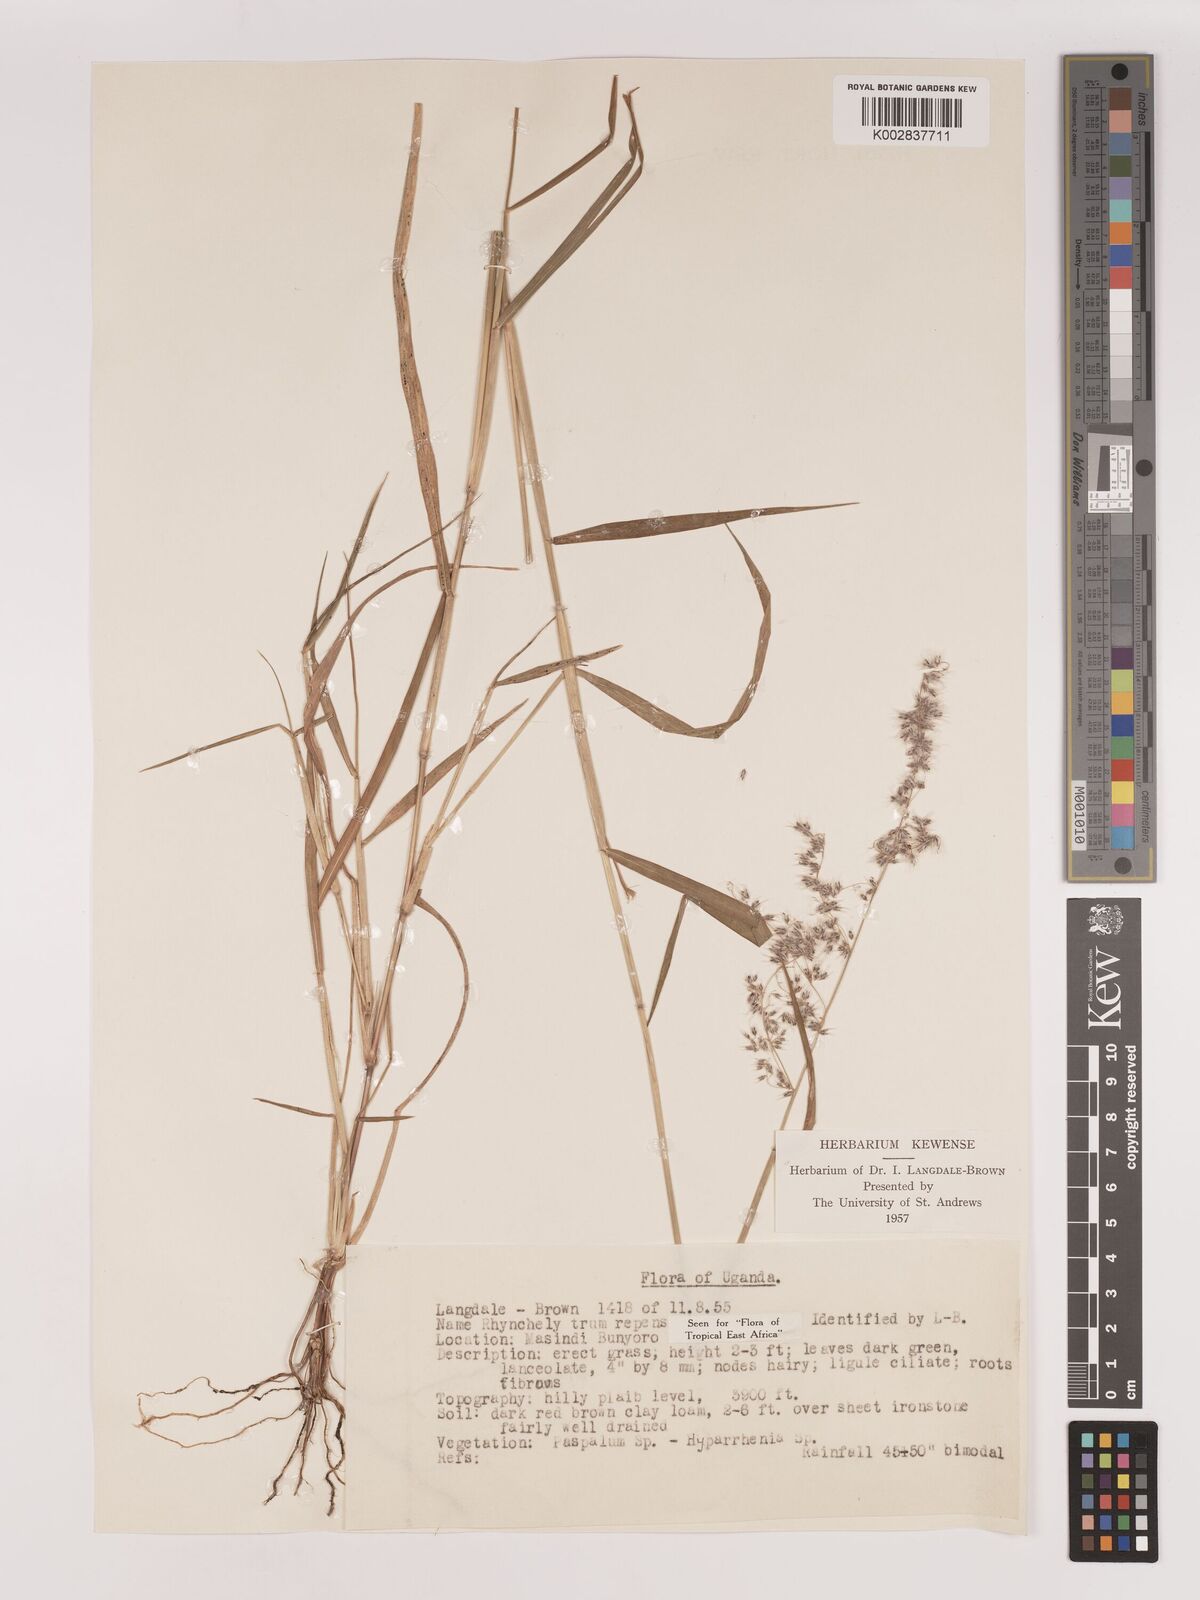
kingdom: Plantae
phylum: Tracheophyta
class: Liliopsida
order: Poales
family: Poaceae
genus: Melinis
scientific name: Melinis repens
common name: Rose natal grass
